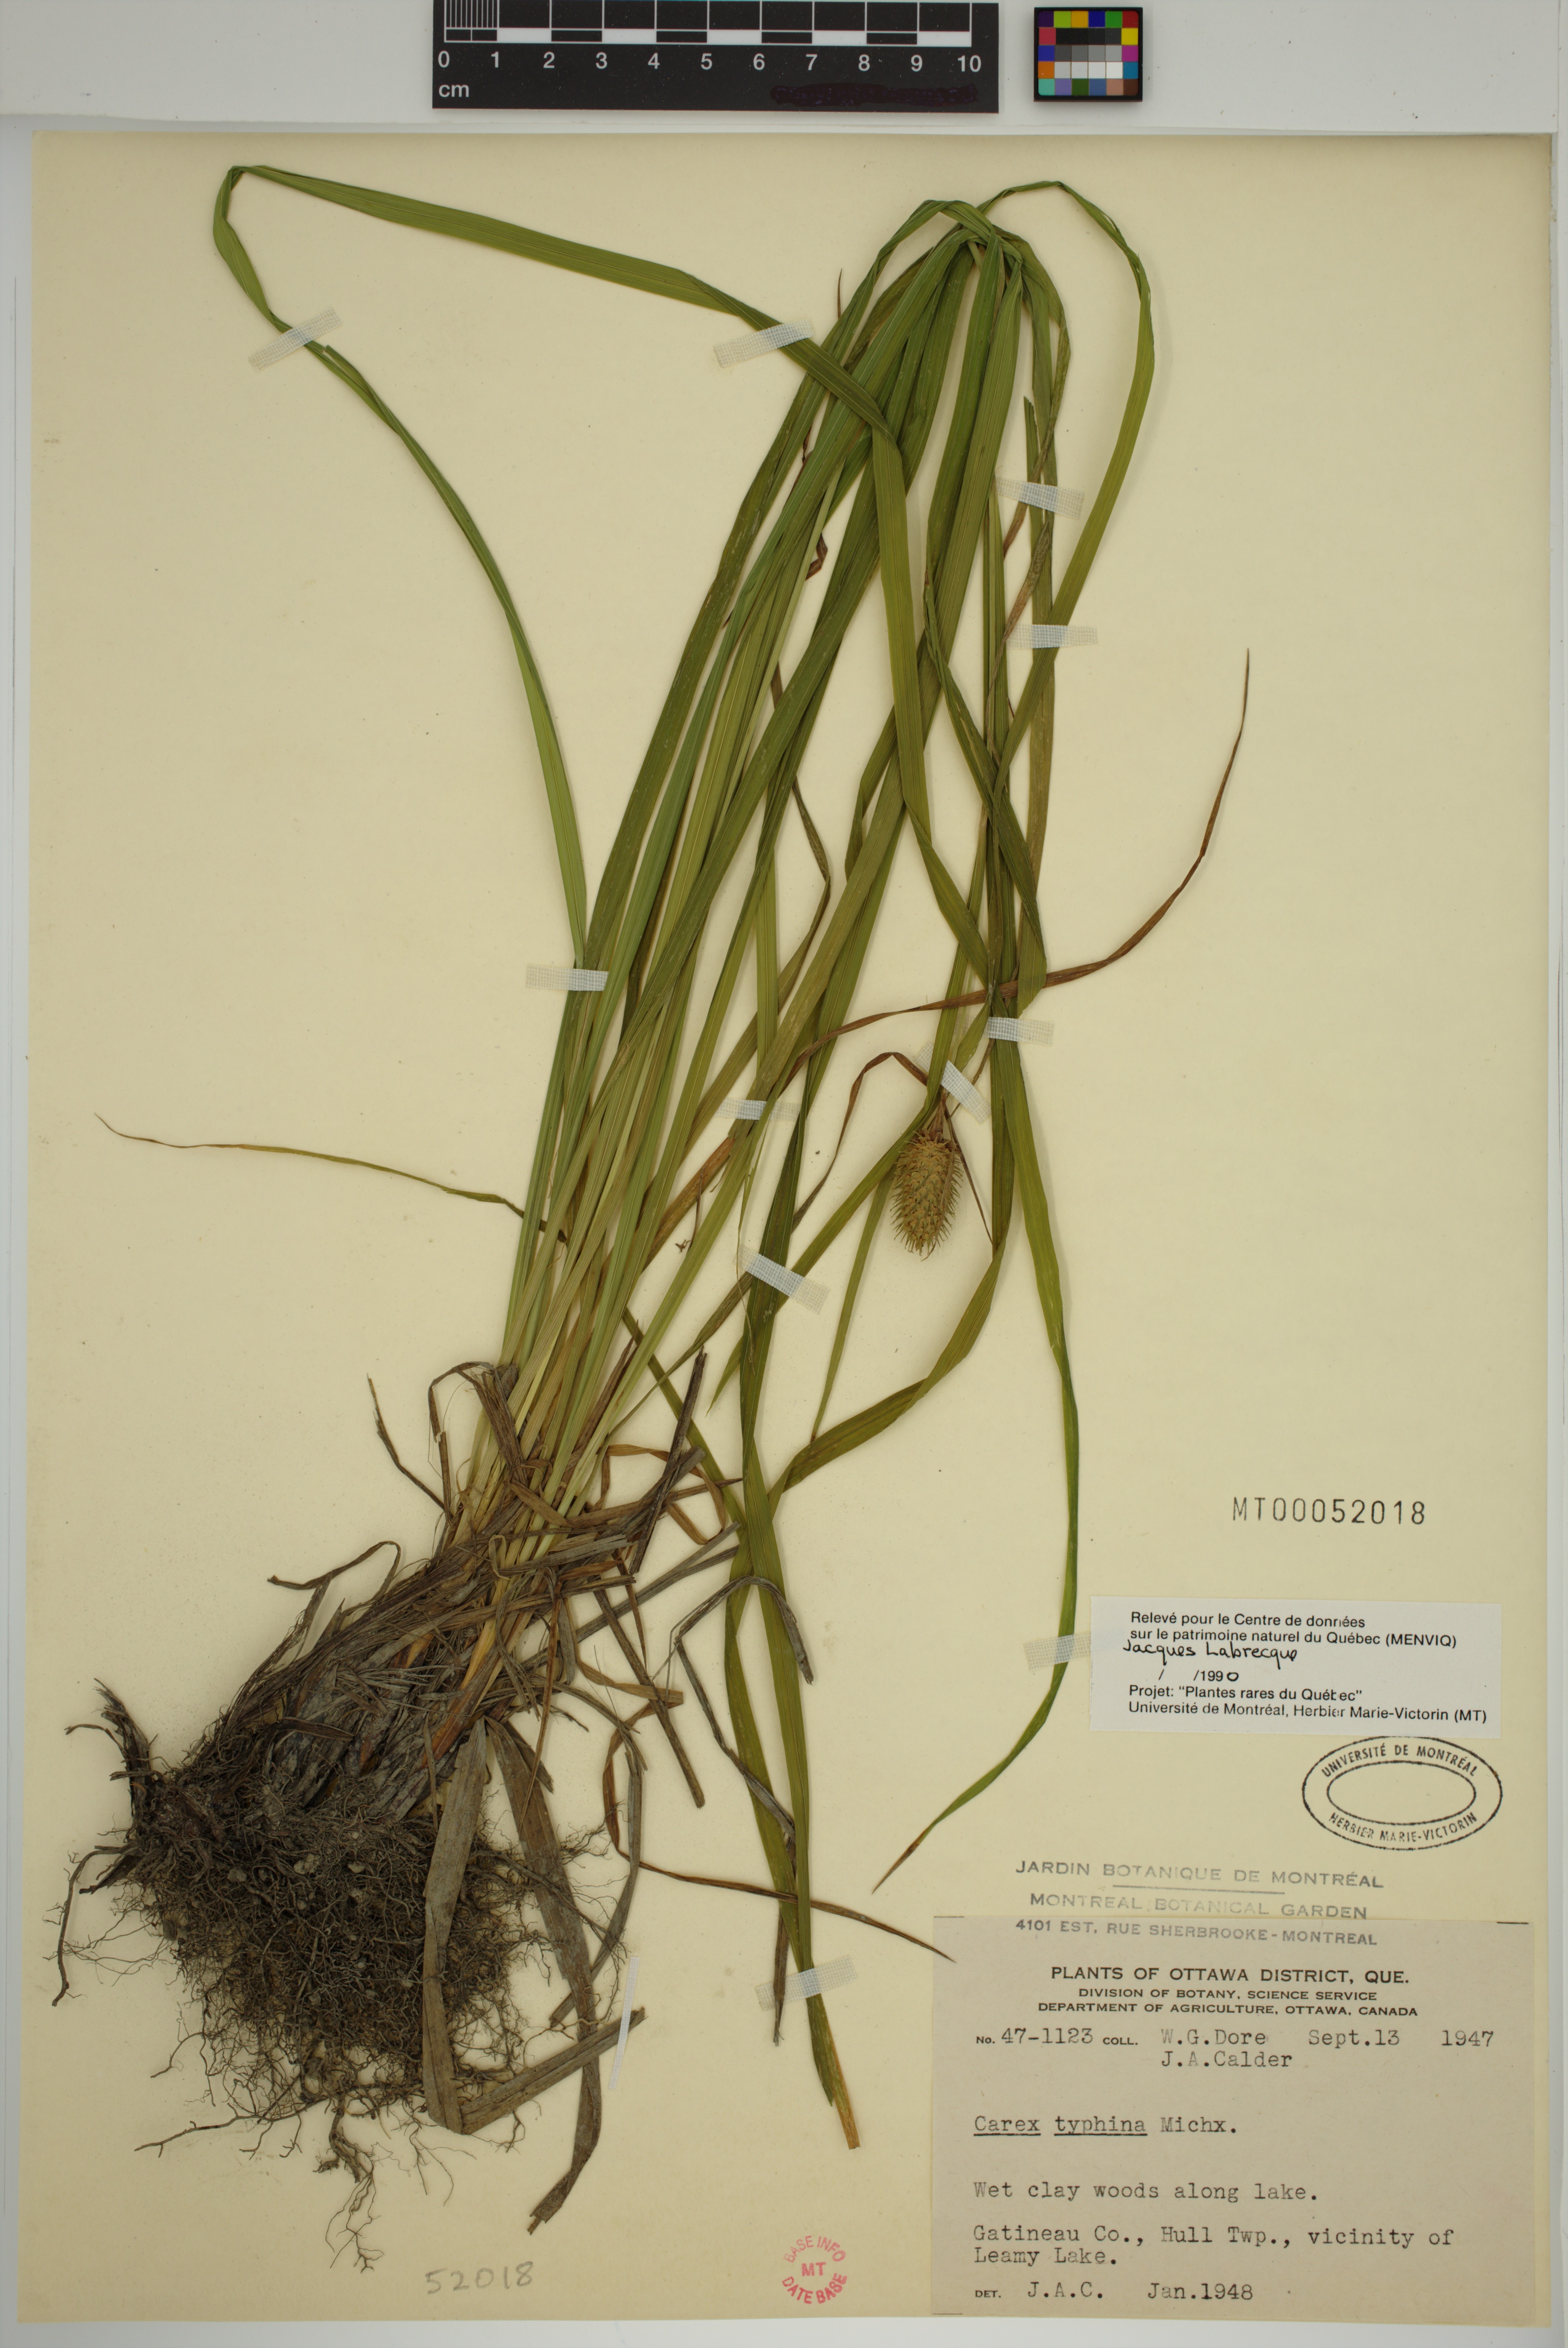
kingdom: Plantae
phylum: Tracheophyta
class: Liliopsida
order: Poales
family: Cyperaceae
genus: Carex
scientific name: Carex typhina
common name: Cattail sedge
